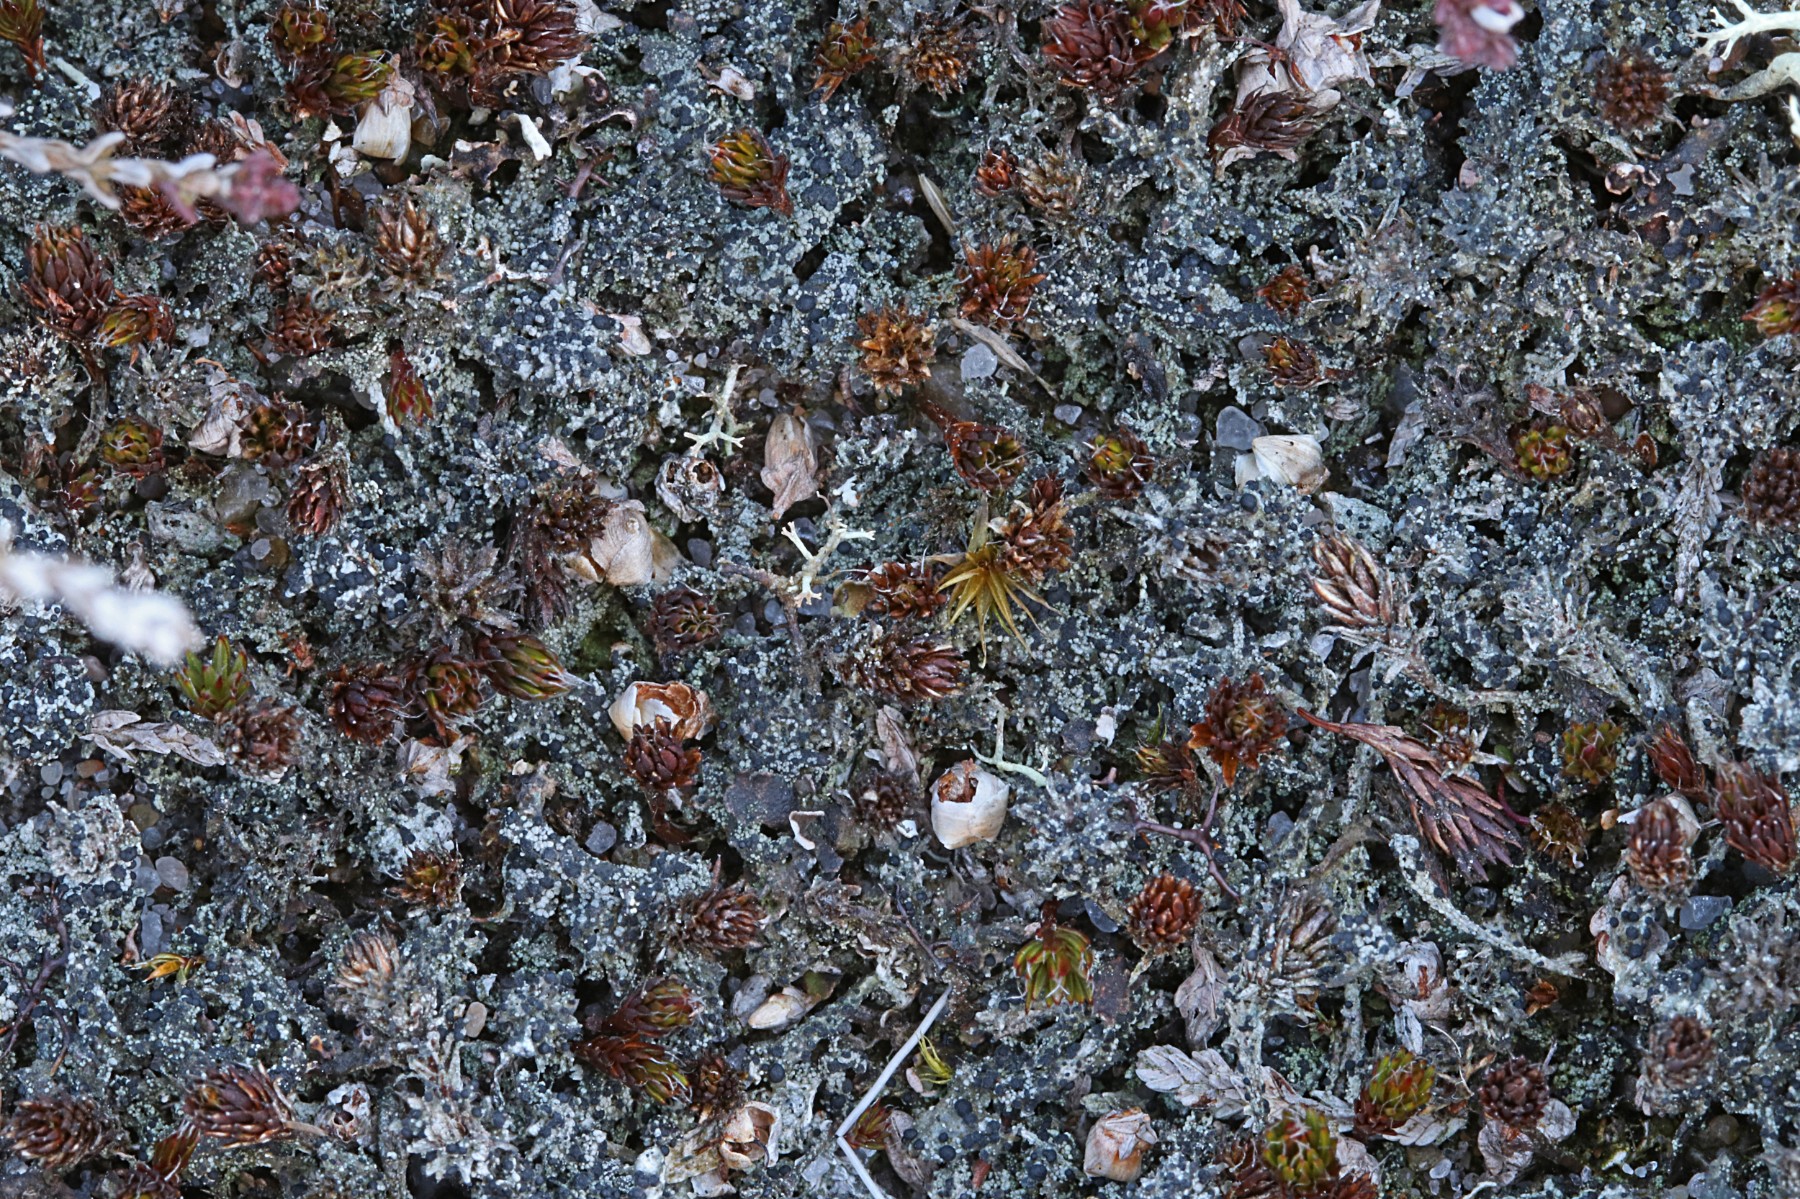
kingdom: Fungi
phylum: Ascomycota
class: Lecanoromycetes
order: Lecanorales
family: Byssolomataceae
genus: Micarea
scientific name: Micarea lignaria
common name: tørve-knaplav
